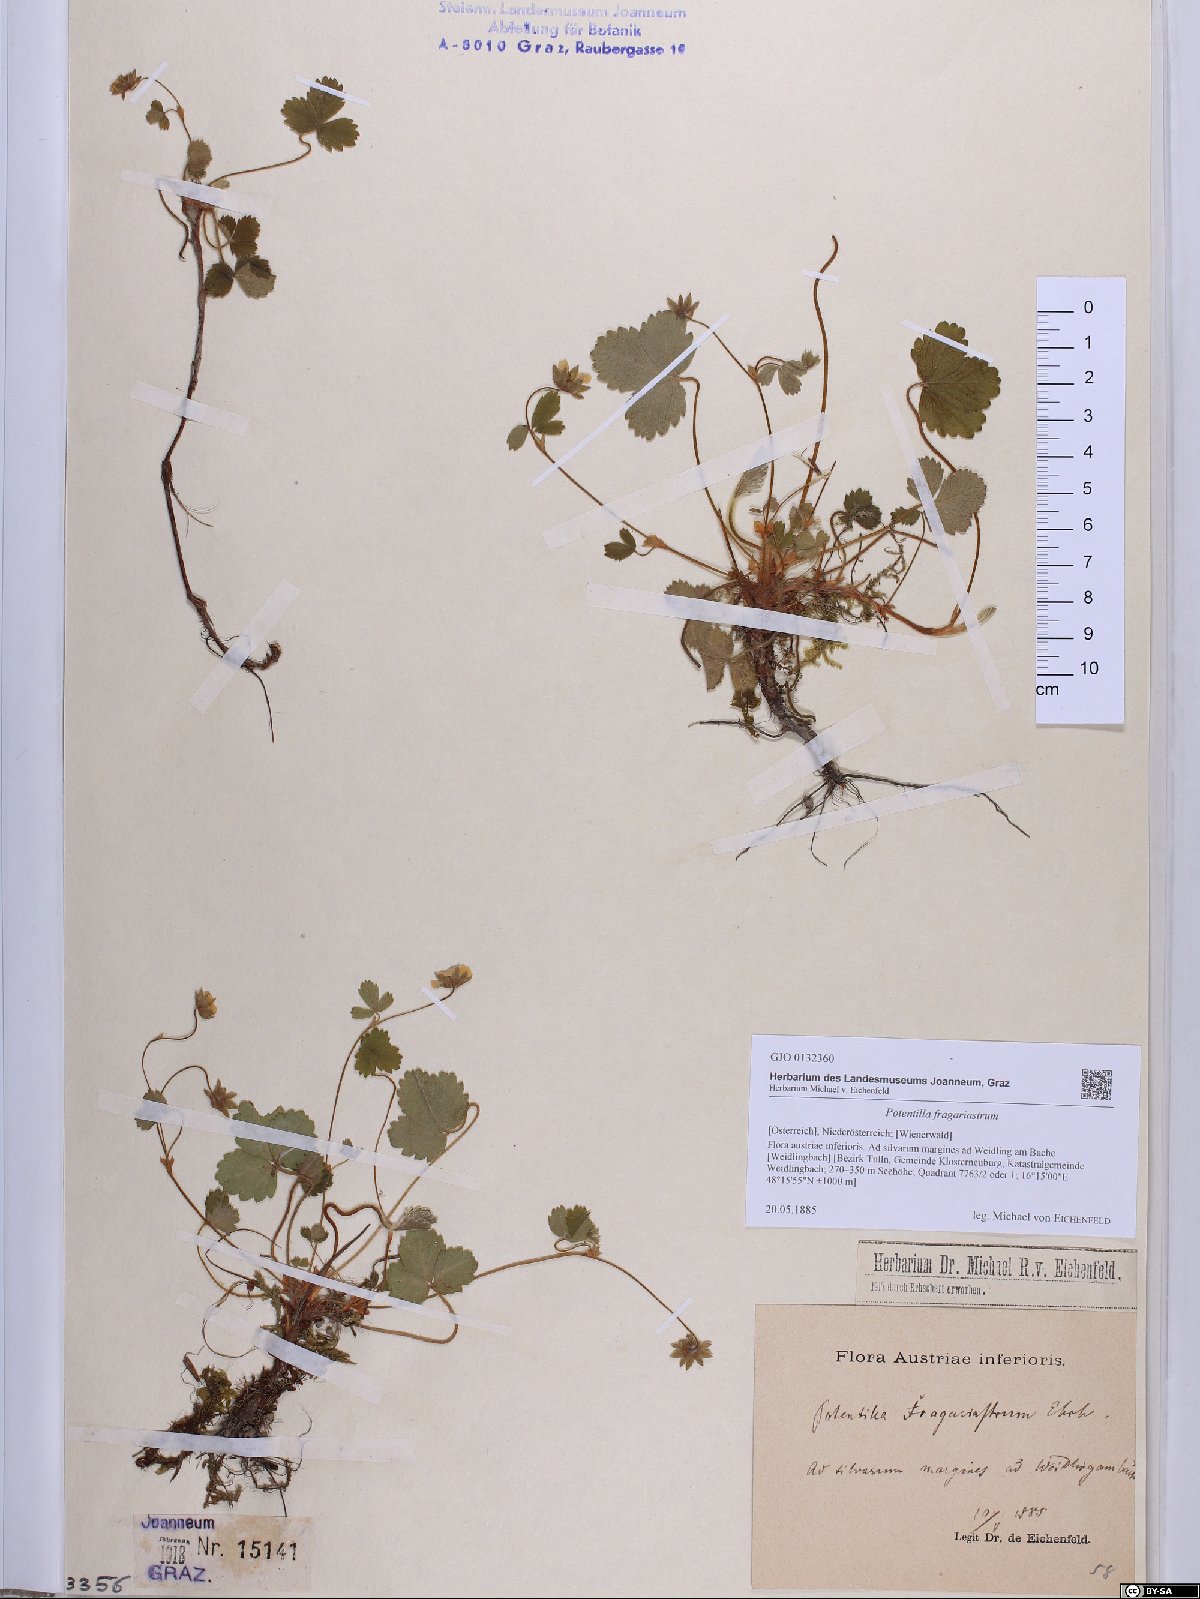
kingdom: Plantae
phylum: Tracheophyta
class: Magnoliopsida
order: Rosales
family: Rosaceae
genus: Potentilla
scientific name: Potentilla sterilis
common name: Barren strawberry
